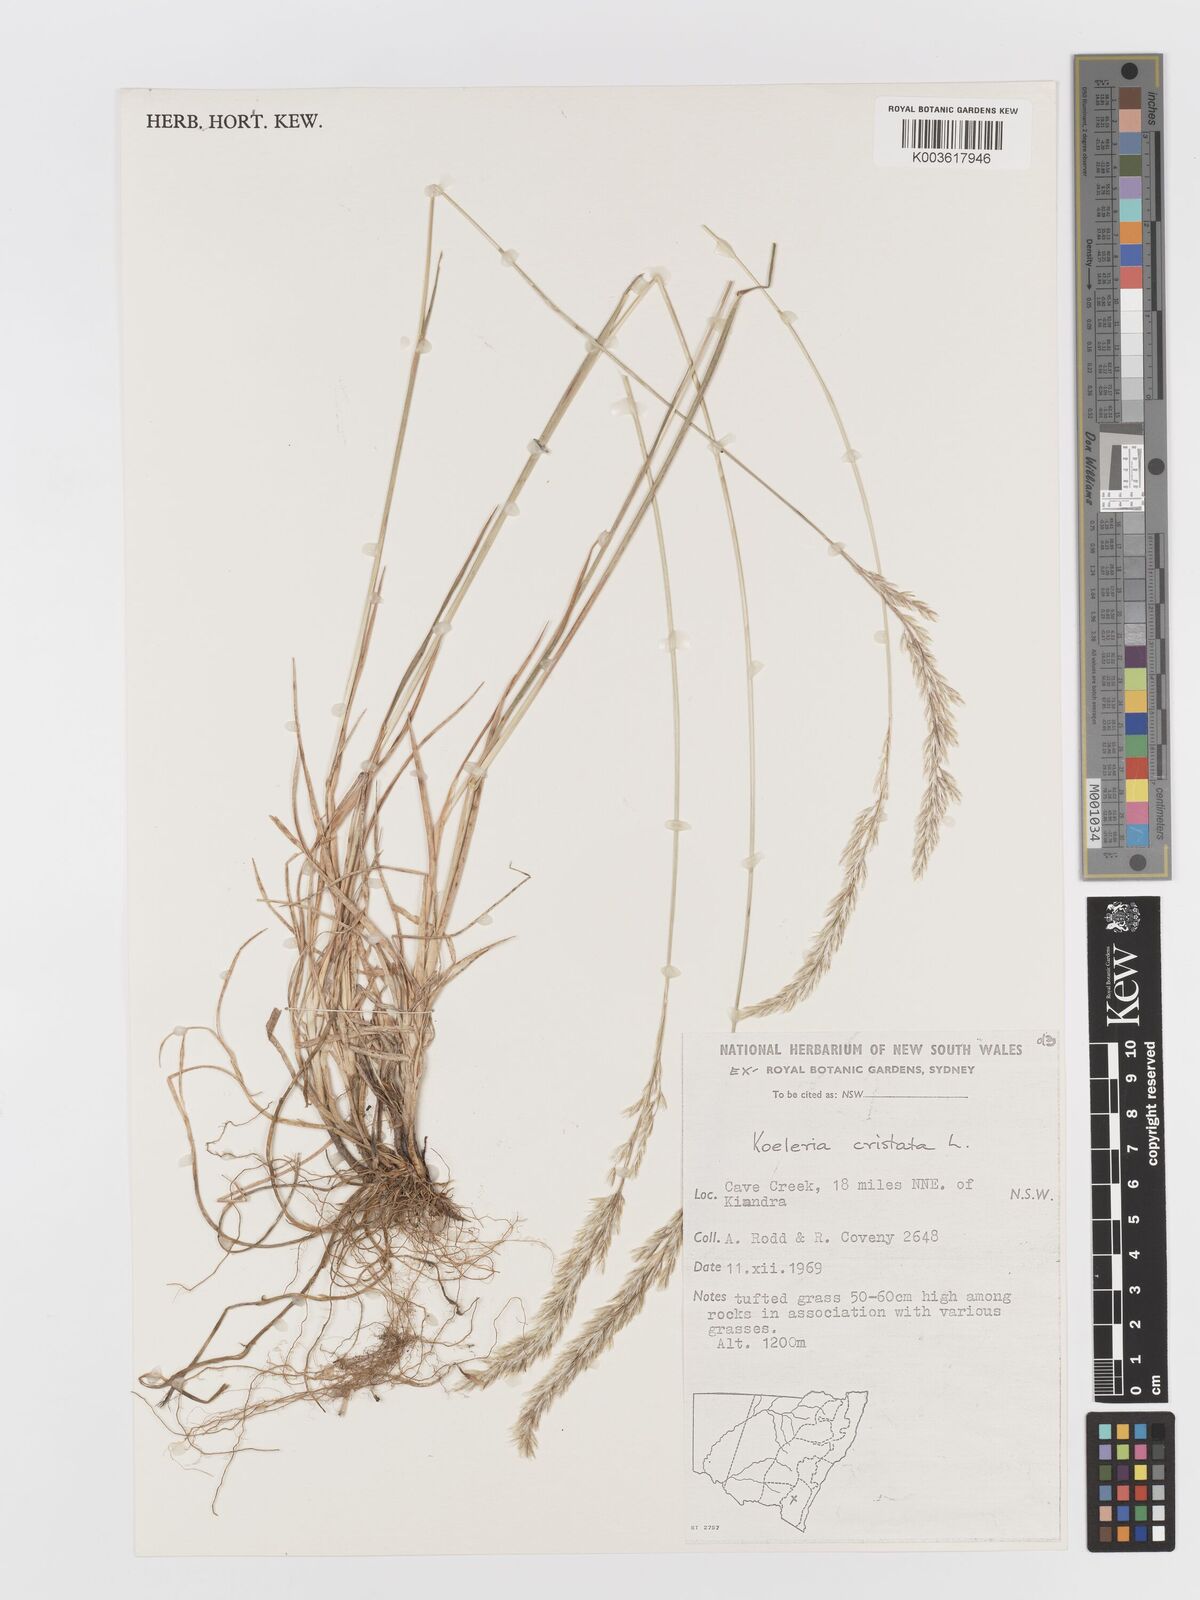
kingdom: Plantae
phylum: Tracheophyta
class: Liliopsida
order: Poales
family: Poaceae
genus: Koeleria
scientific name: Koeleria
